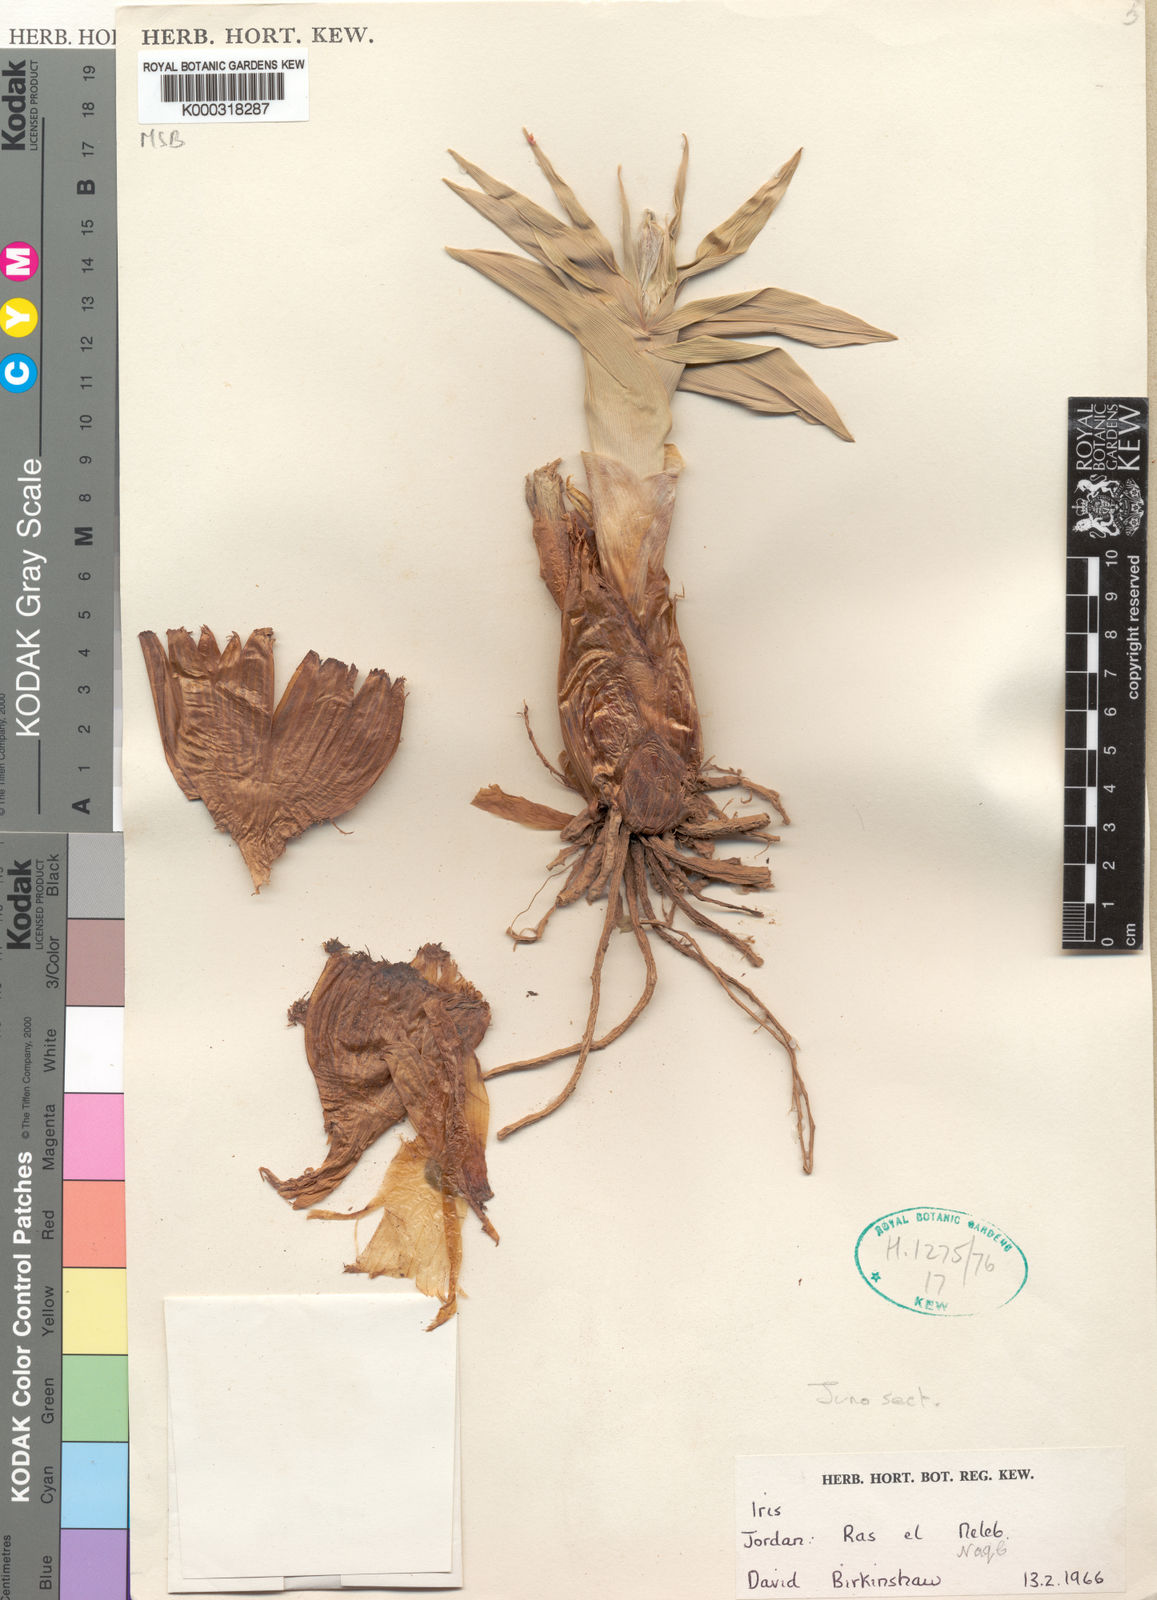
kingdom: Plantae
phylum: Tracheophyta
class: Liliopsida
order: Asparagales
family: Iridaceae
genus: Iris
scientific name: Iris regis-uzziae
